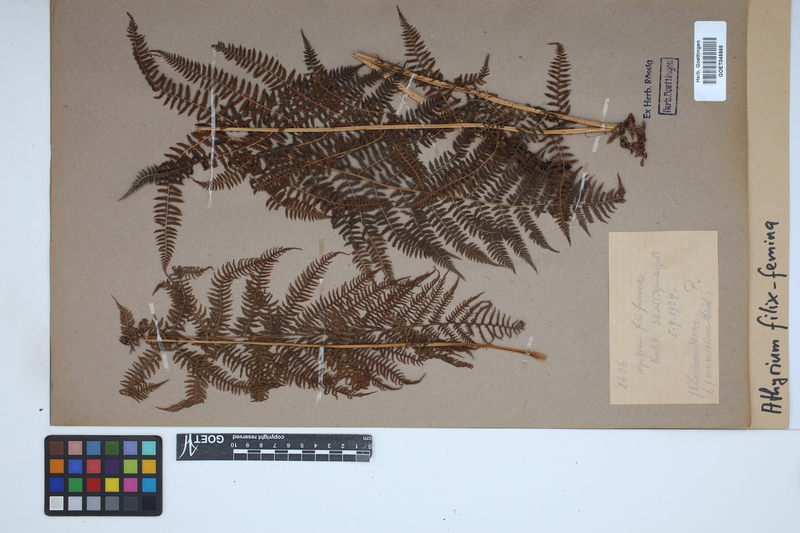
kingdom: Plantae
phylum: Tracheophyta
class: Polypodiopsida
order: Polypodiales
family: Athyriaceae
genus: Athyrium
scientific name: Athyrium filix-femina
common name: Lady fern
